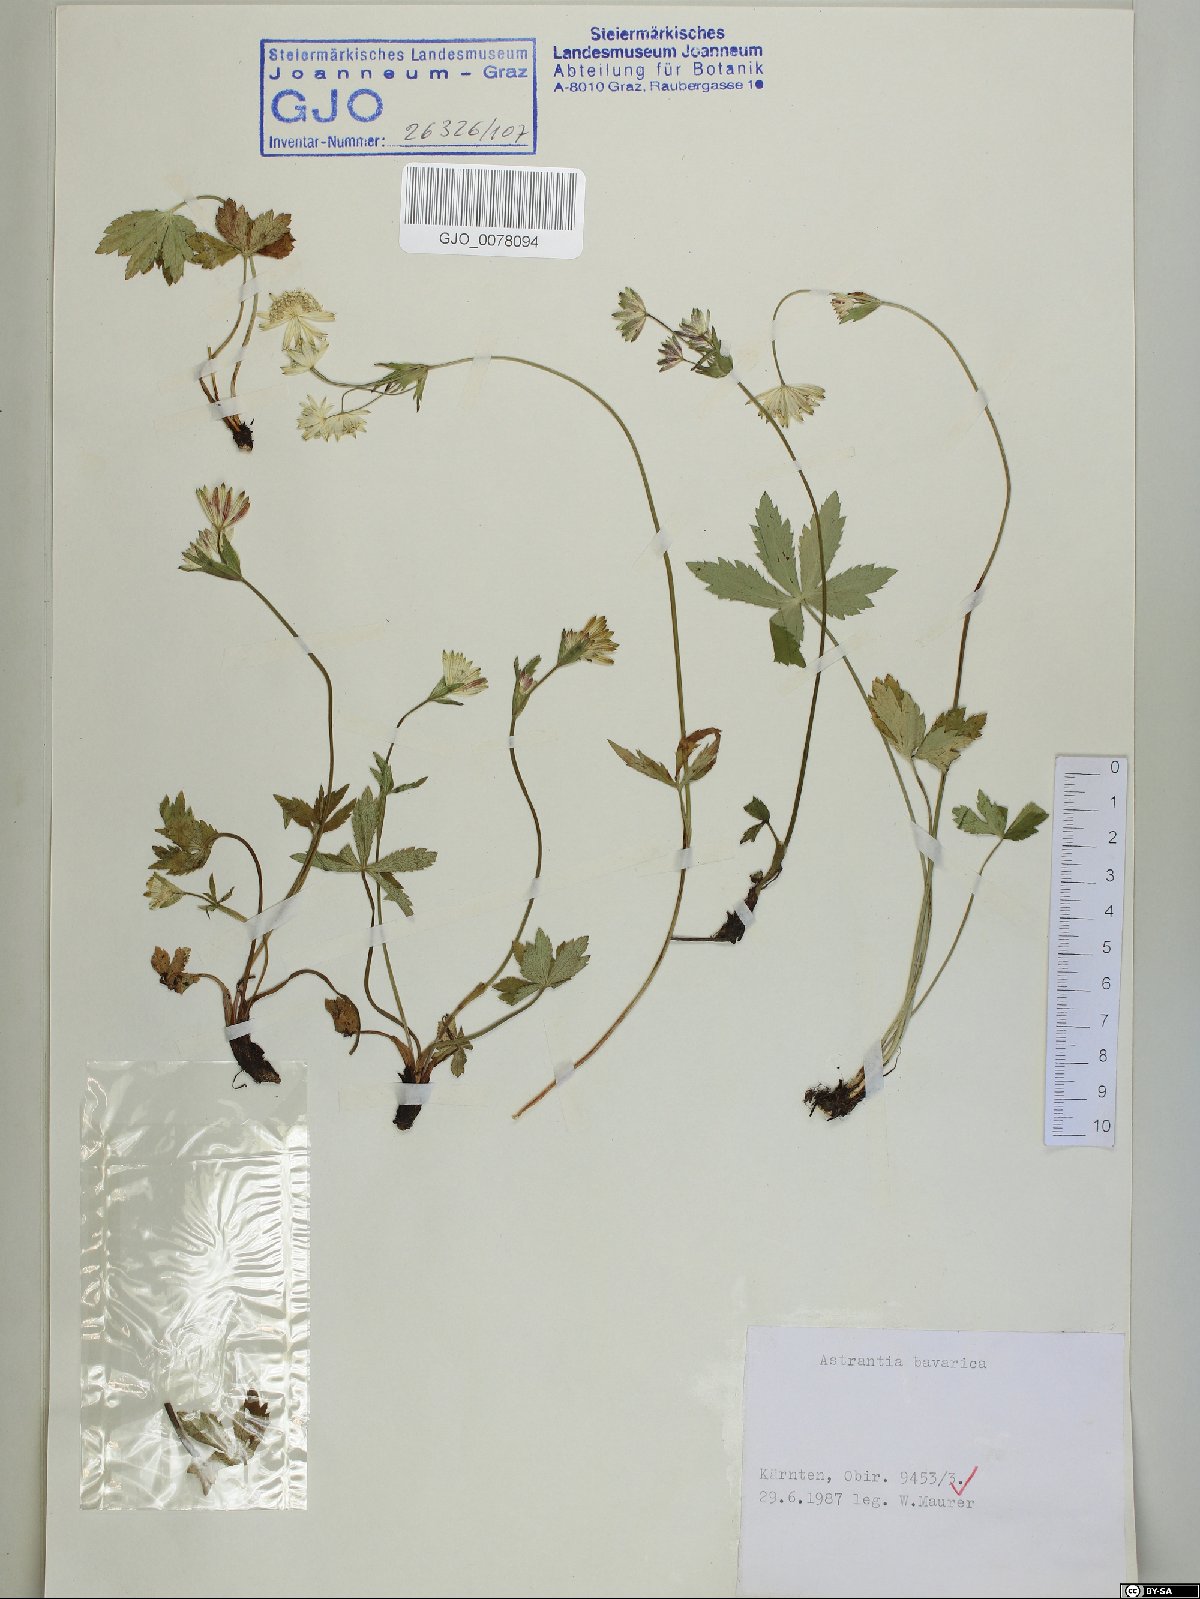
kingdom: Plantae
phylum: Tracheophyta
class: Magnoliopsida
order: Apiales
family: Apiaceae
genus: Astrantia
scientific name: Astrantia bavarica
